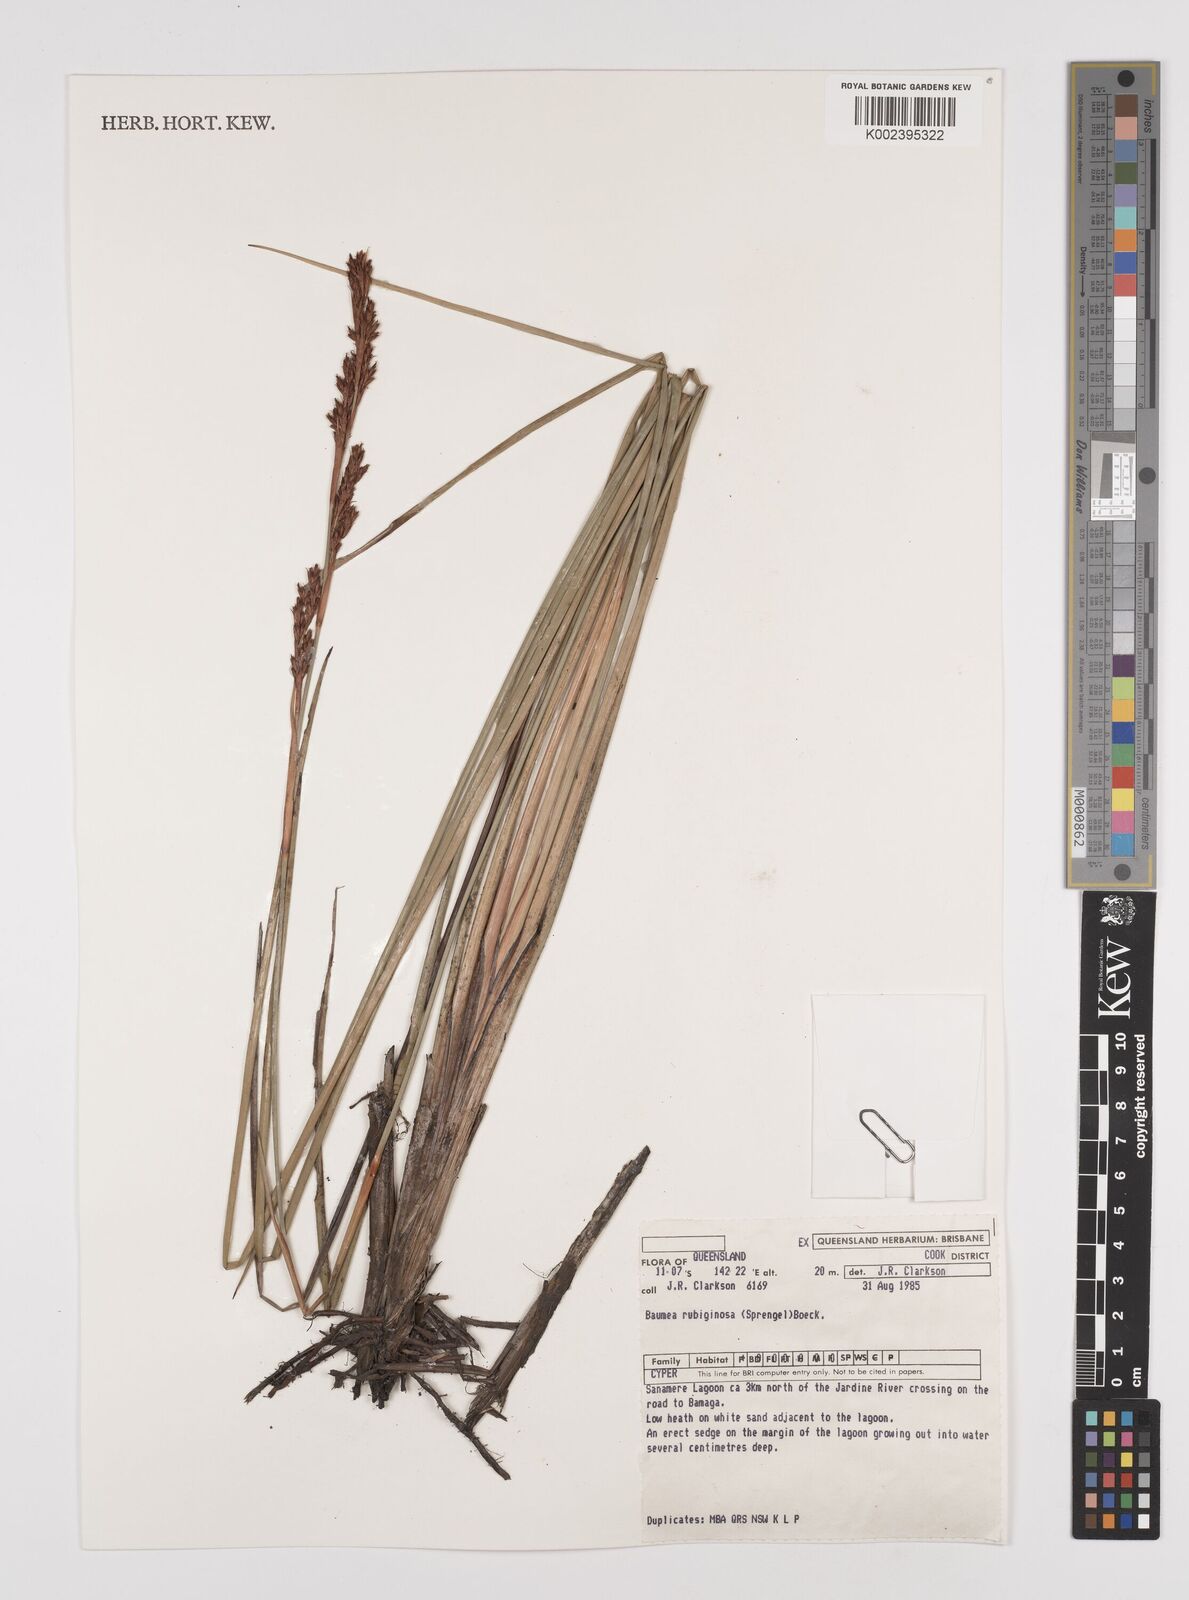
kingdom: Plantae
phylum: Tracheophyta
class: Liliopsida
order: Poales
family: Cyperaceae
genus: Machaerina
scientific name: Machaerina rubiginosa
